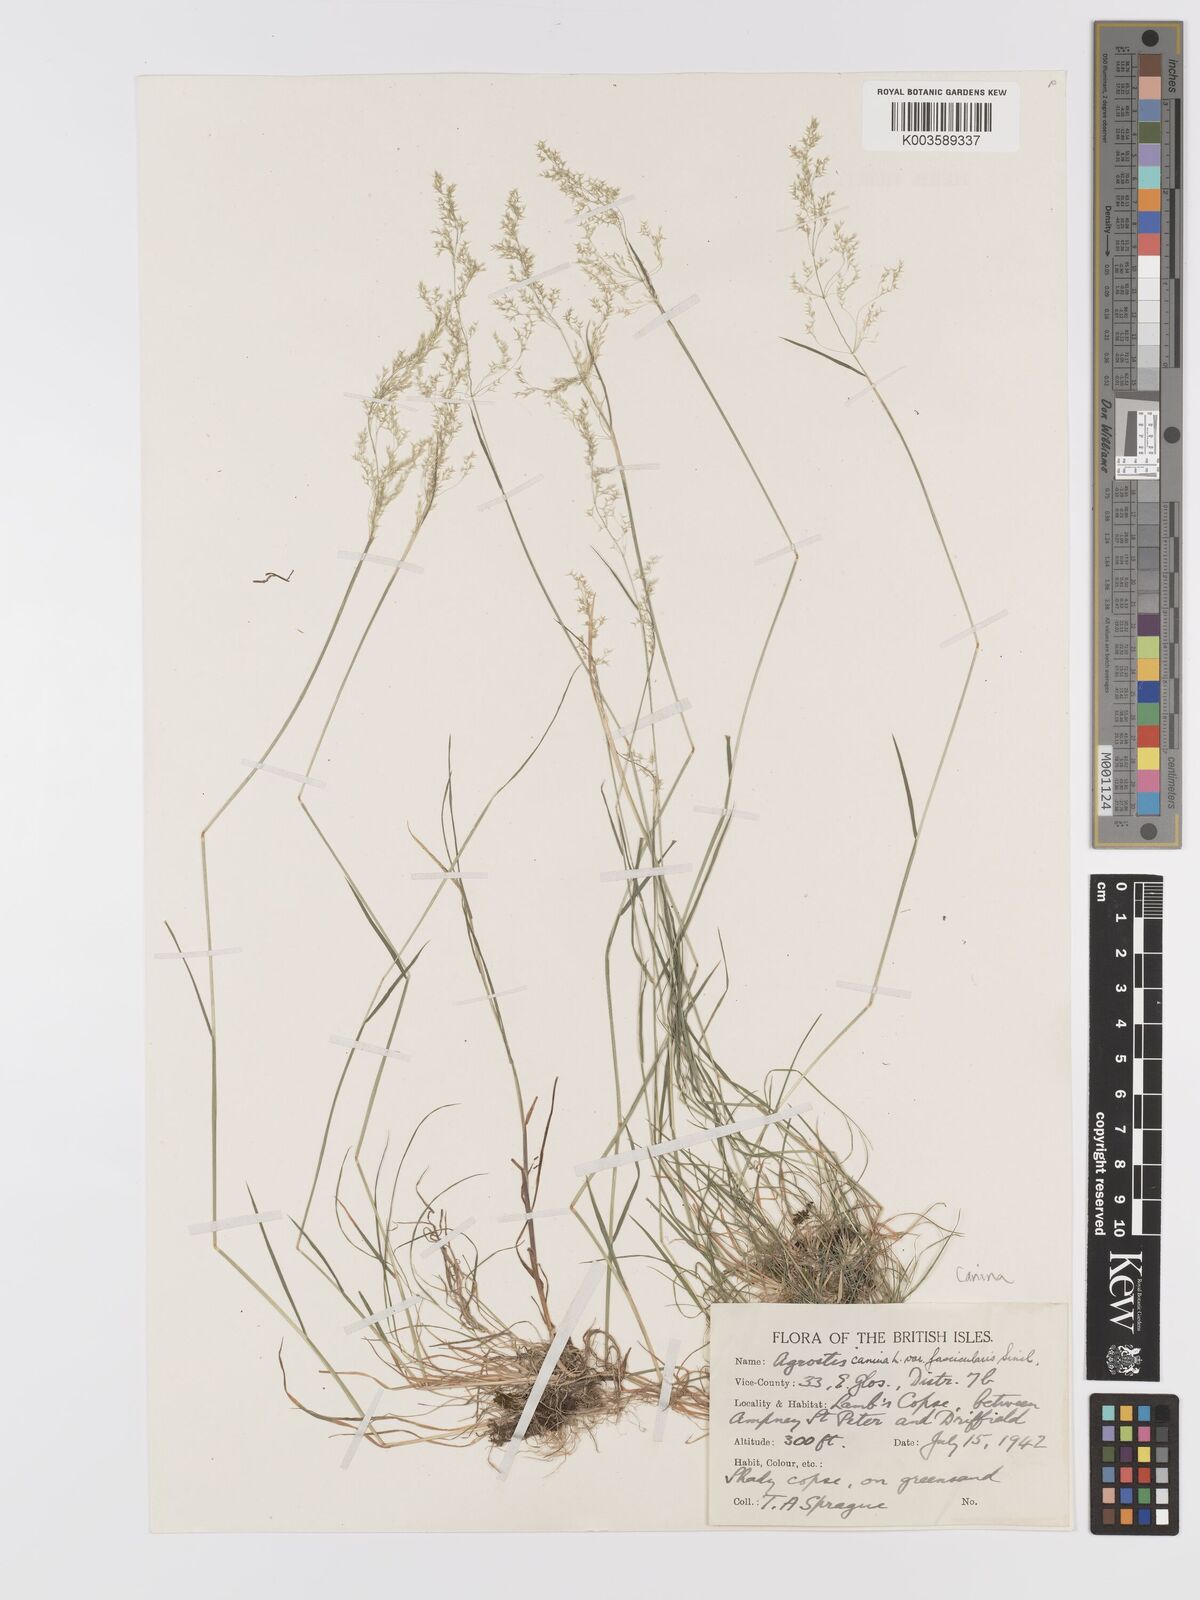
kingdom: Plantae
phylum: Tracheophyta
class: Liliopsida
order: Poales
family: Poaceae
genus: Agrostis
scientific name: Agrostis canina
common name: Velvet bent
